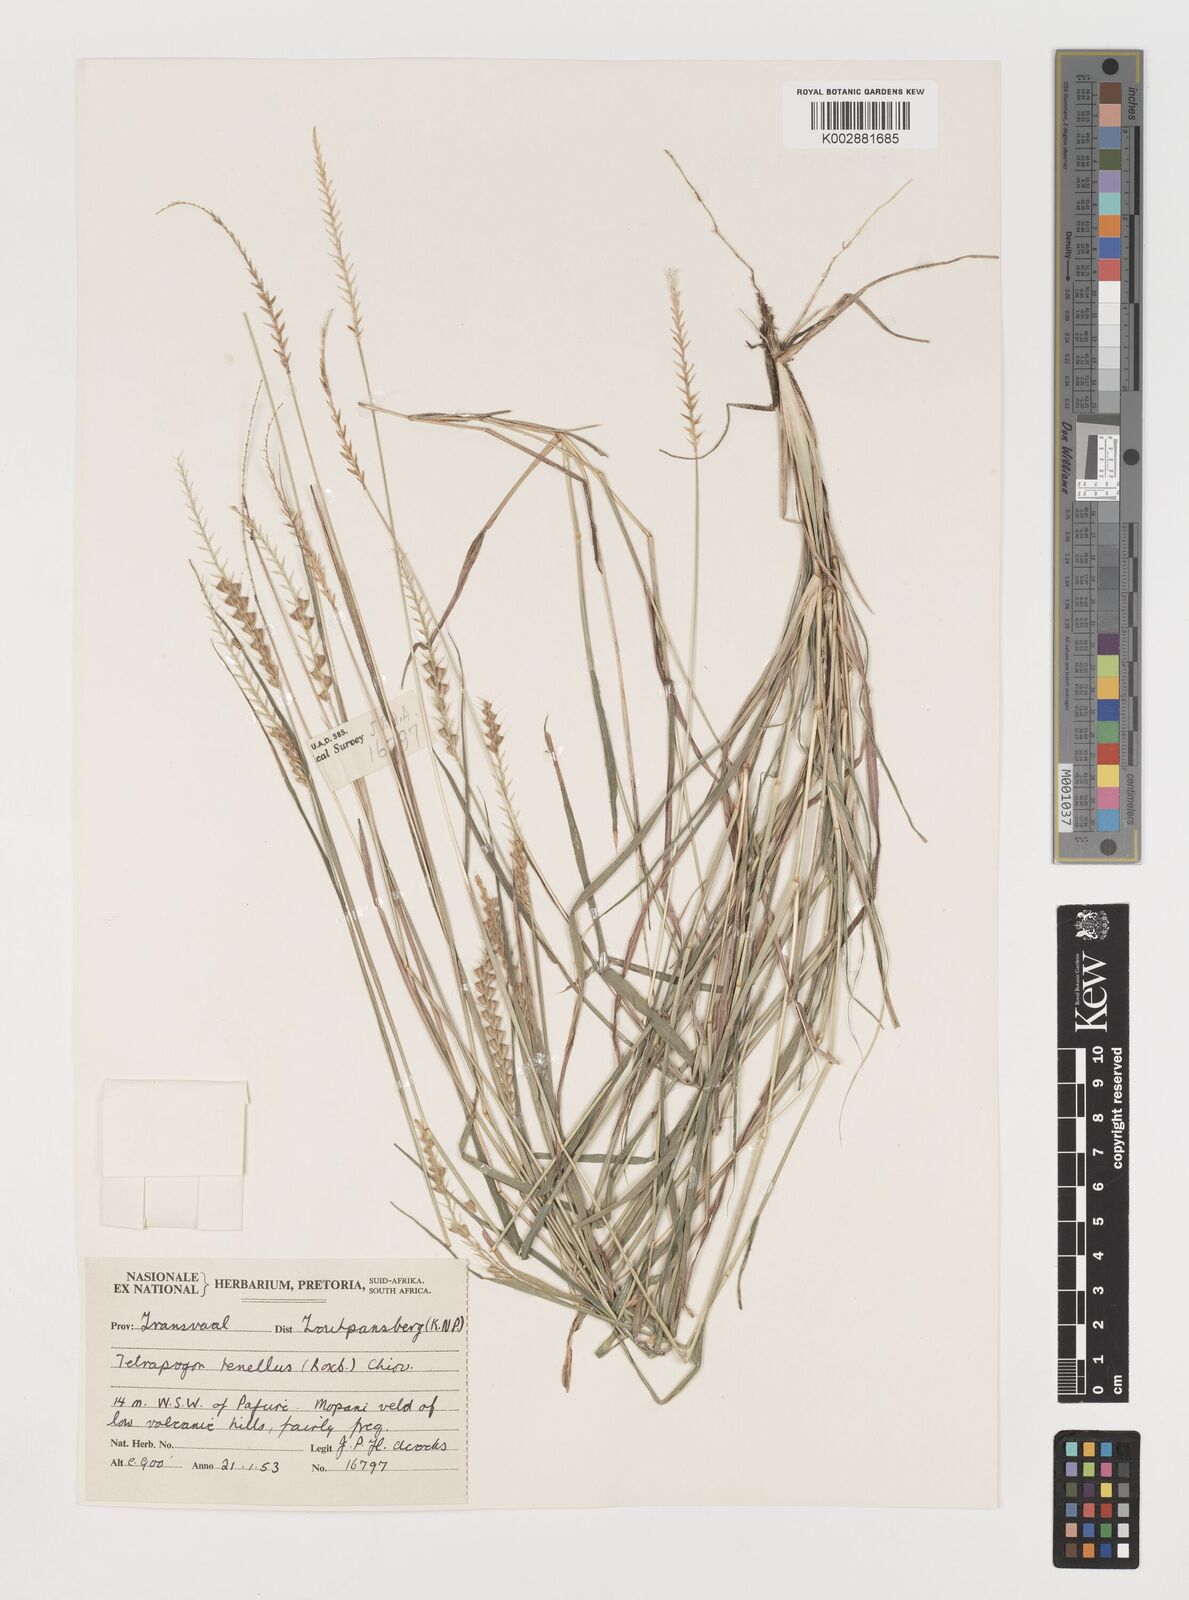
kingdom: Plantae
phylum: Tracheophyta
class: Liliopsida
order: Poales
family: Poaceae
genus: Tetrapogon
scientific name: Tetrapogon tenellus
